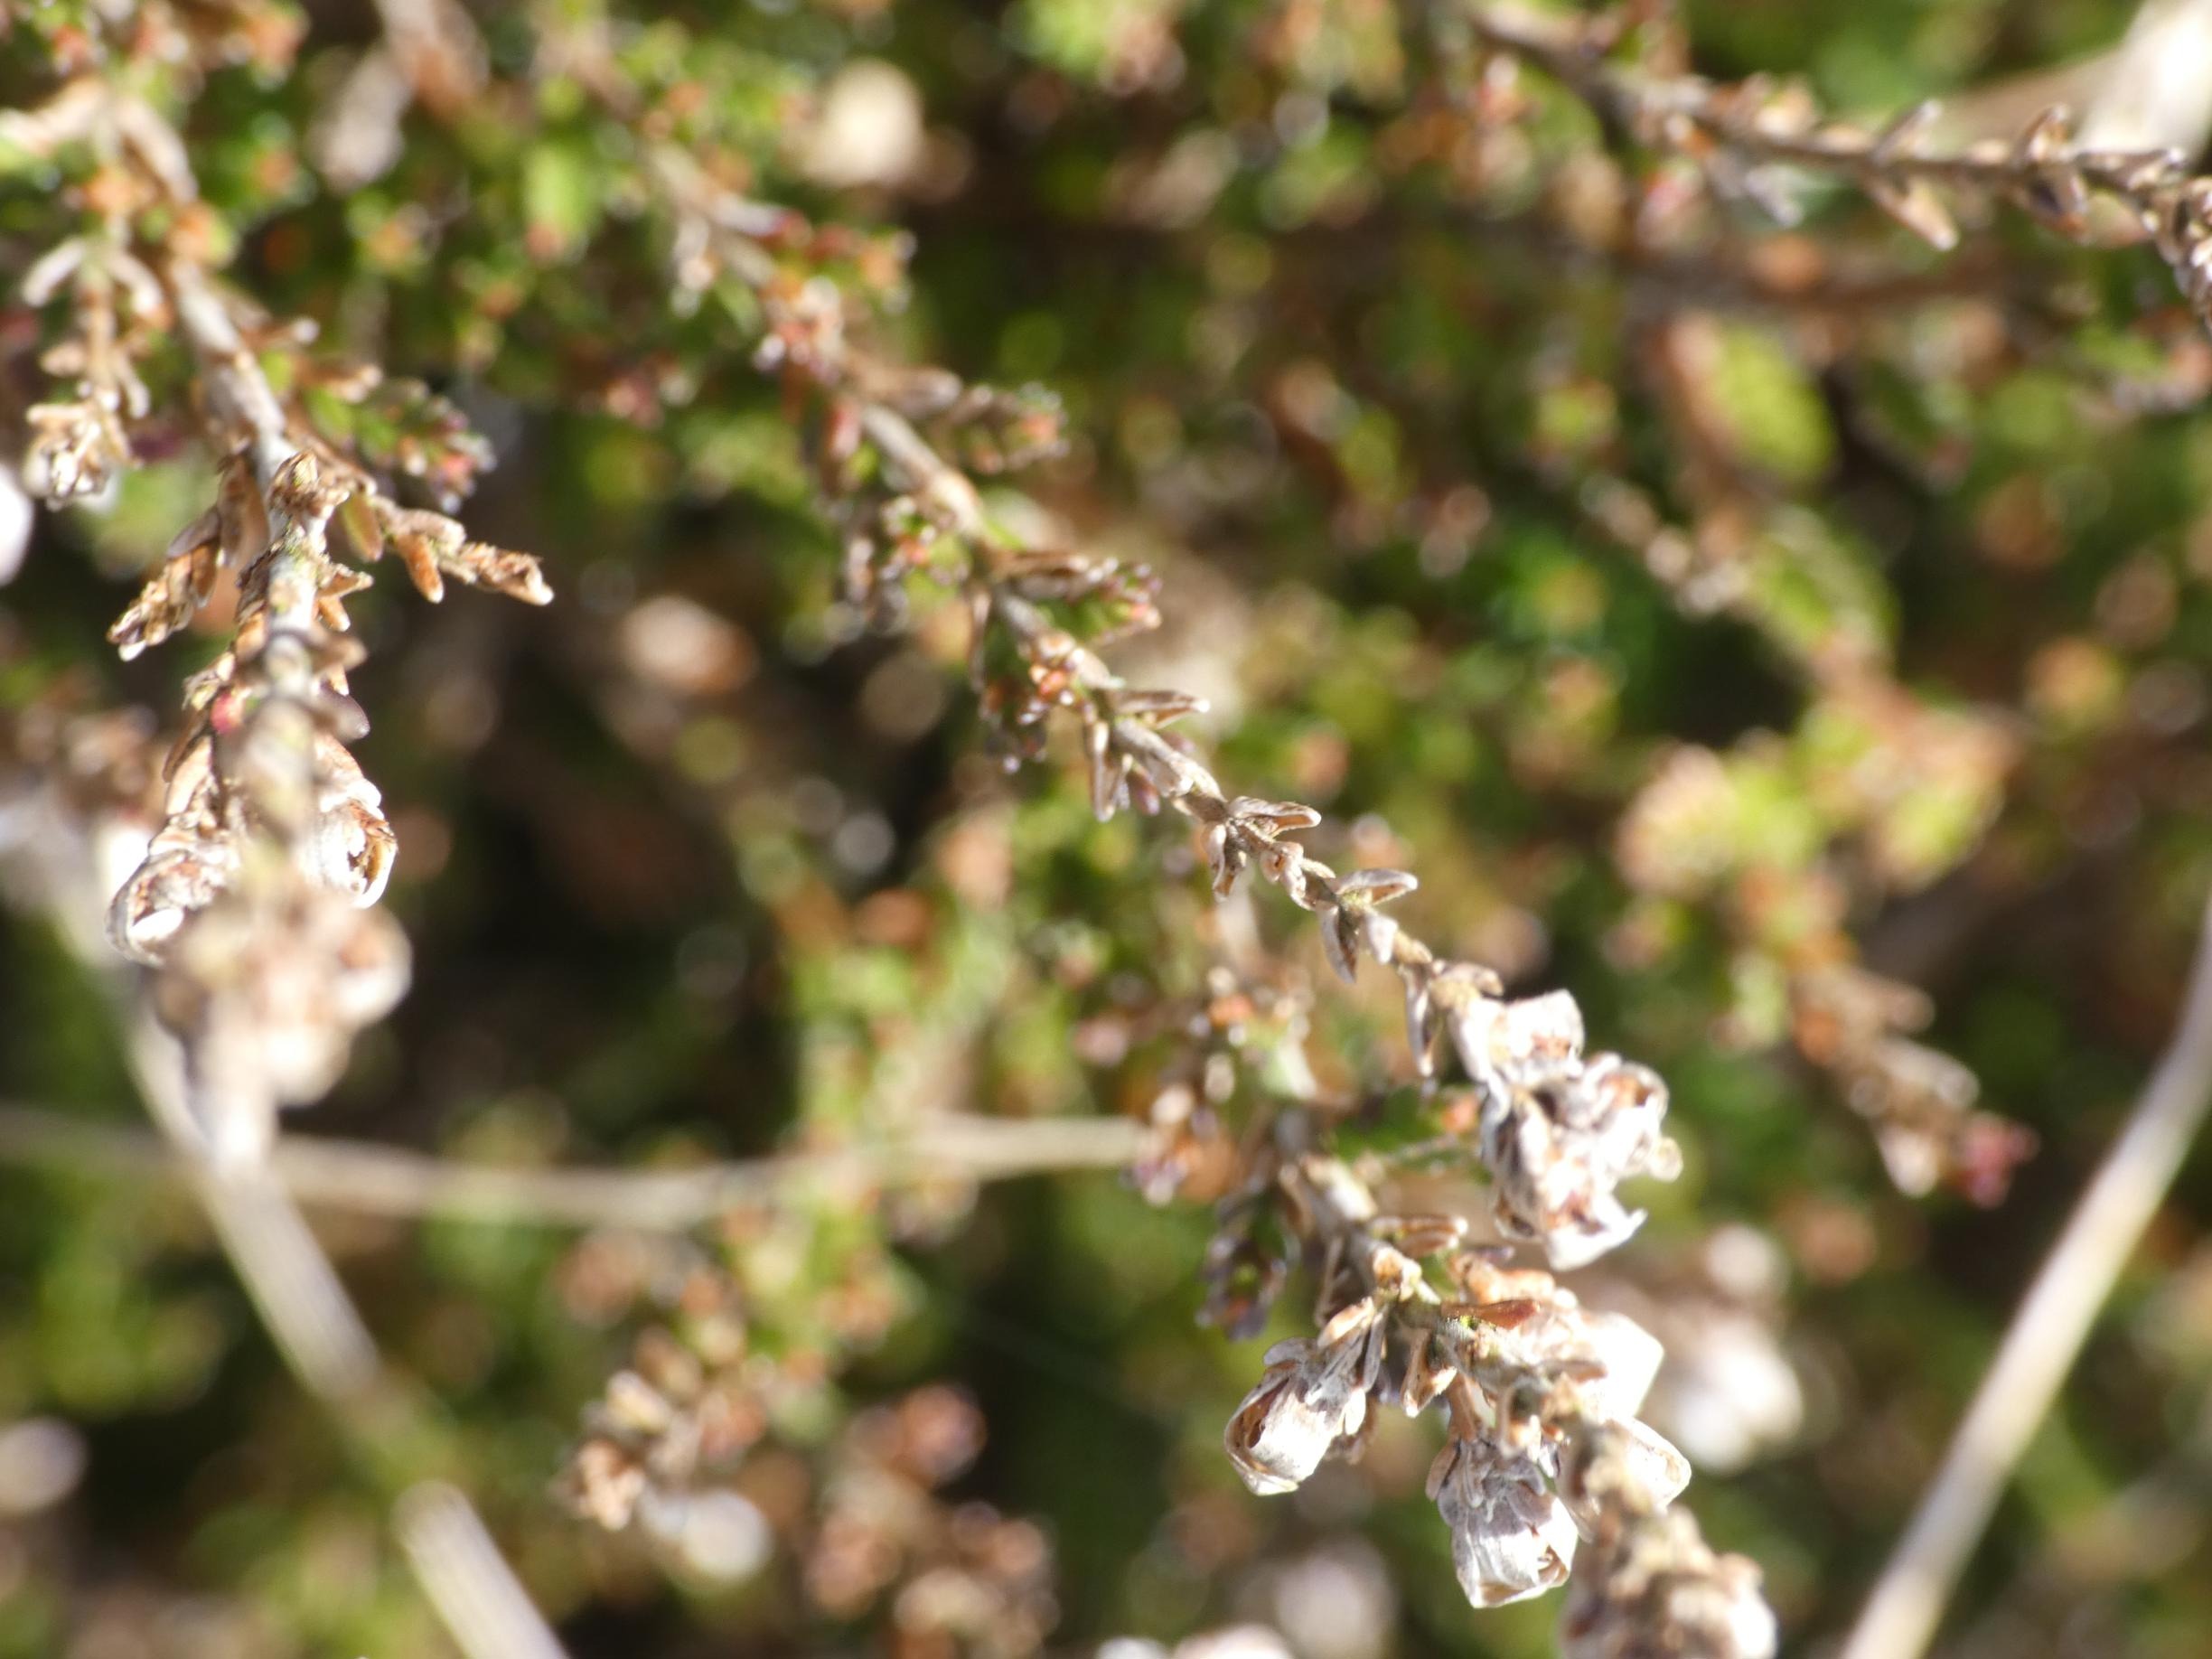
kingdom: Plantae
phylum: Tracheophyta
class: Magnoliopsida
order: Ericales
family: Ericaceae
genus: Calluna
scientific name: Calluna vulgaris
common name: Hedelyng
